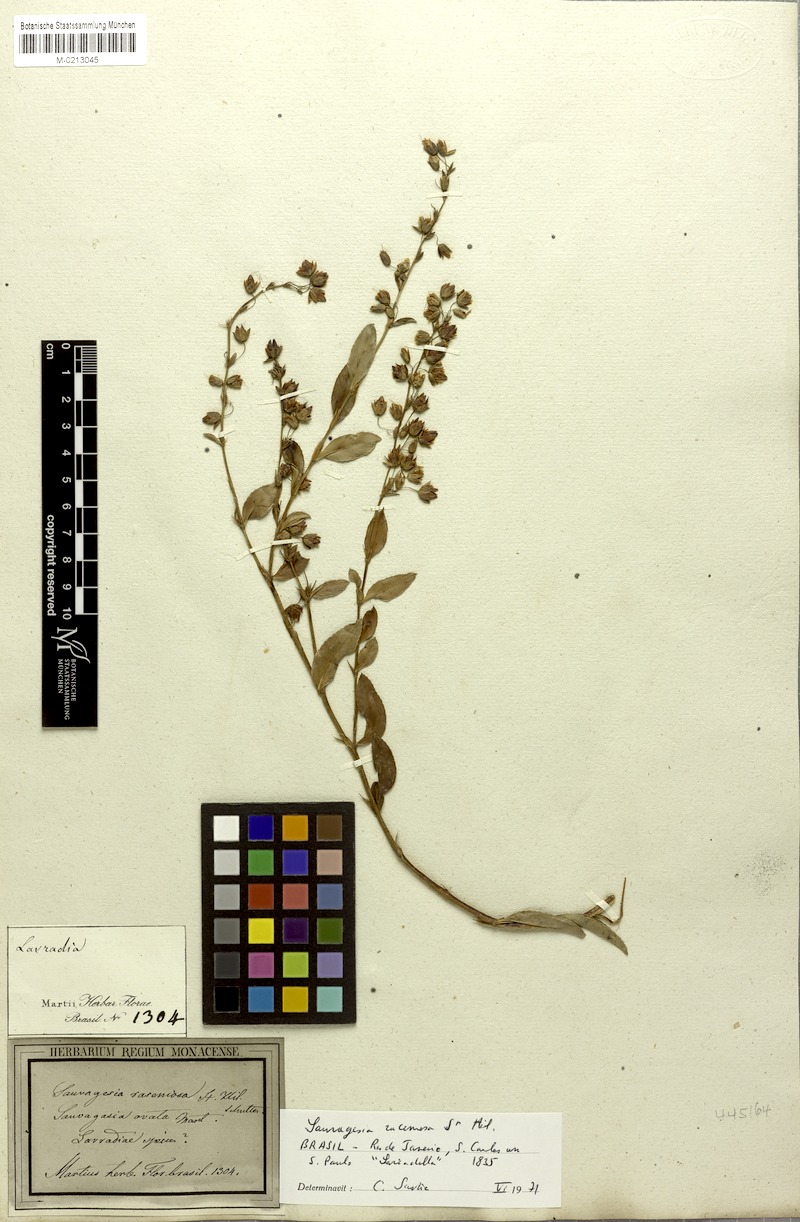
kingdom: Plantae
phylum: Tracheophyta
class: Magnoliopsida
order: Malpighiales
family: Ochnaceae
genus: Sauvagesia
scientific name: Sauvagesia racemosa
